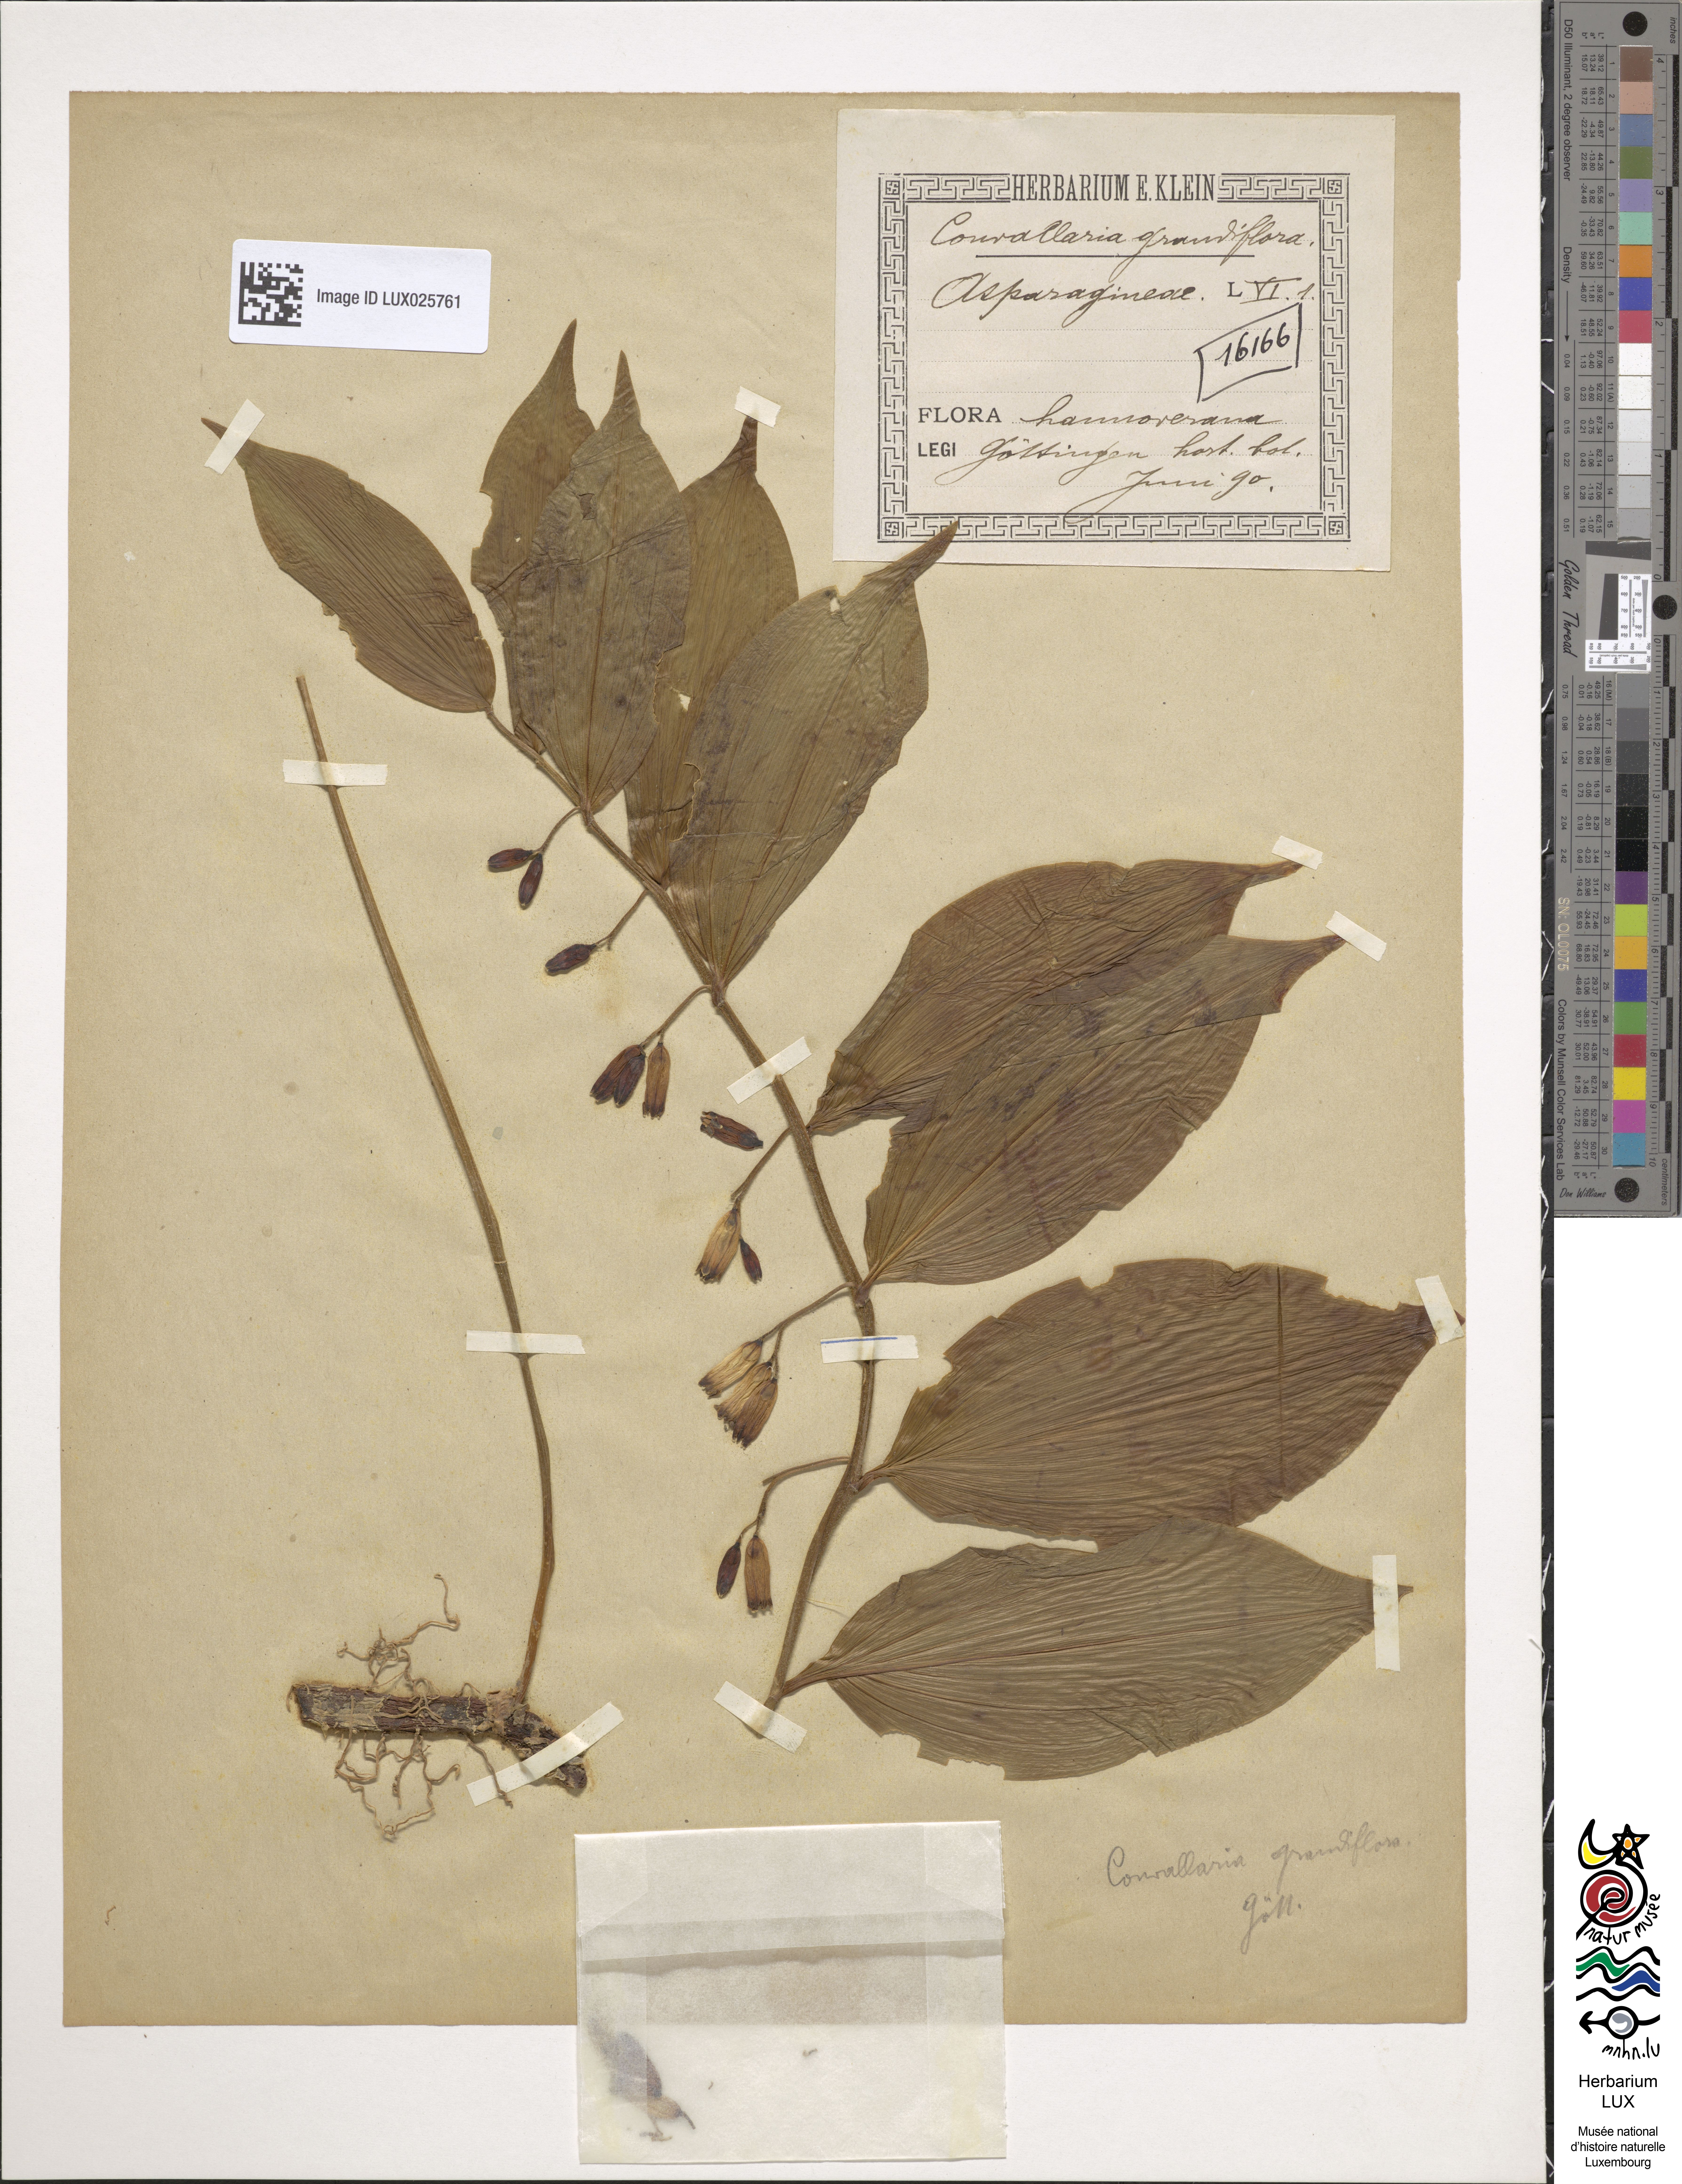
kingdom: Plantae
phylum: Tracheophyta
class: Liliopsida
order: Asparagales
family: Asparagaceae
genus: Convallaria
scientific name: Convallaria
